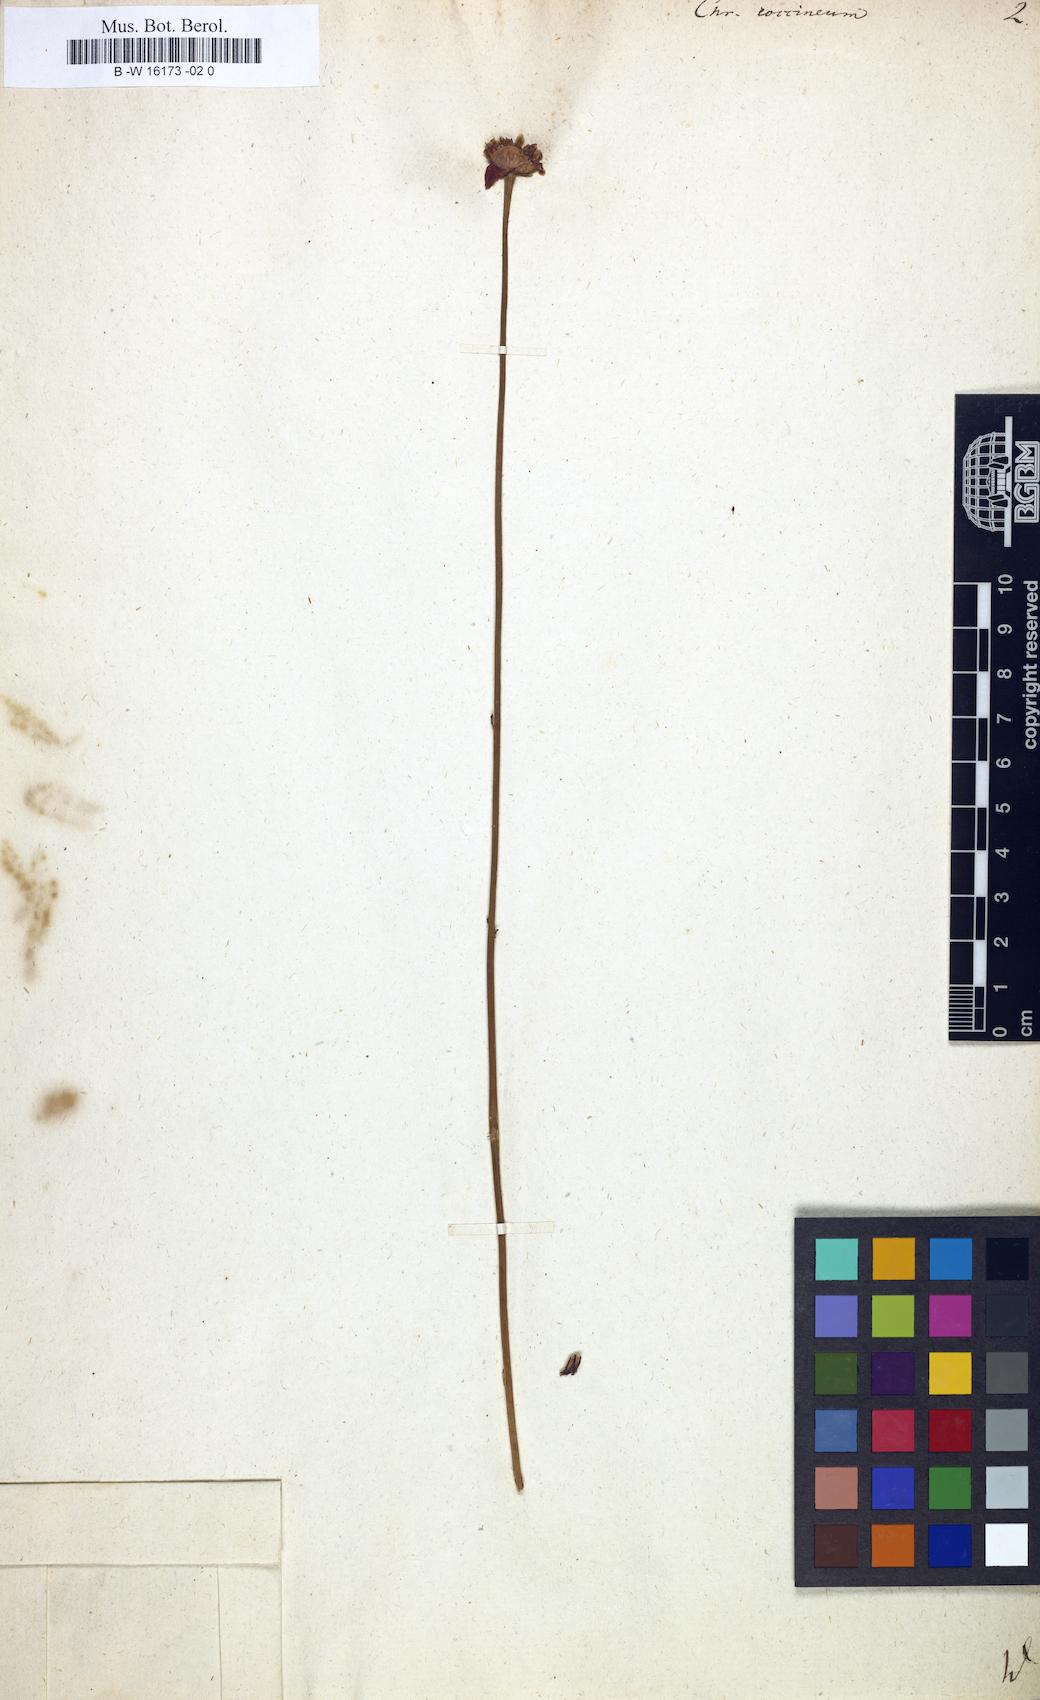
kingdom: Plantae
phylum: Tracheophyta
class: Magnoliopsida
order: Asterales
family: Asteraceae
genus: Chrysanthemum
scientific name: Chrysanthemum coccineum
